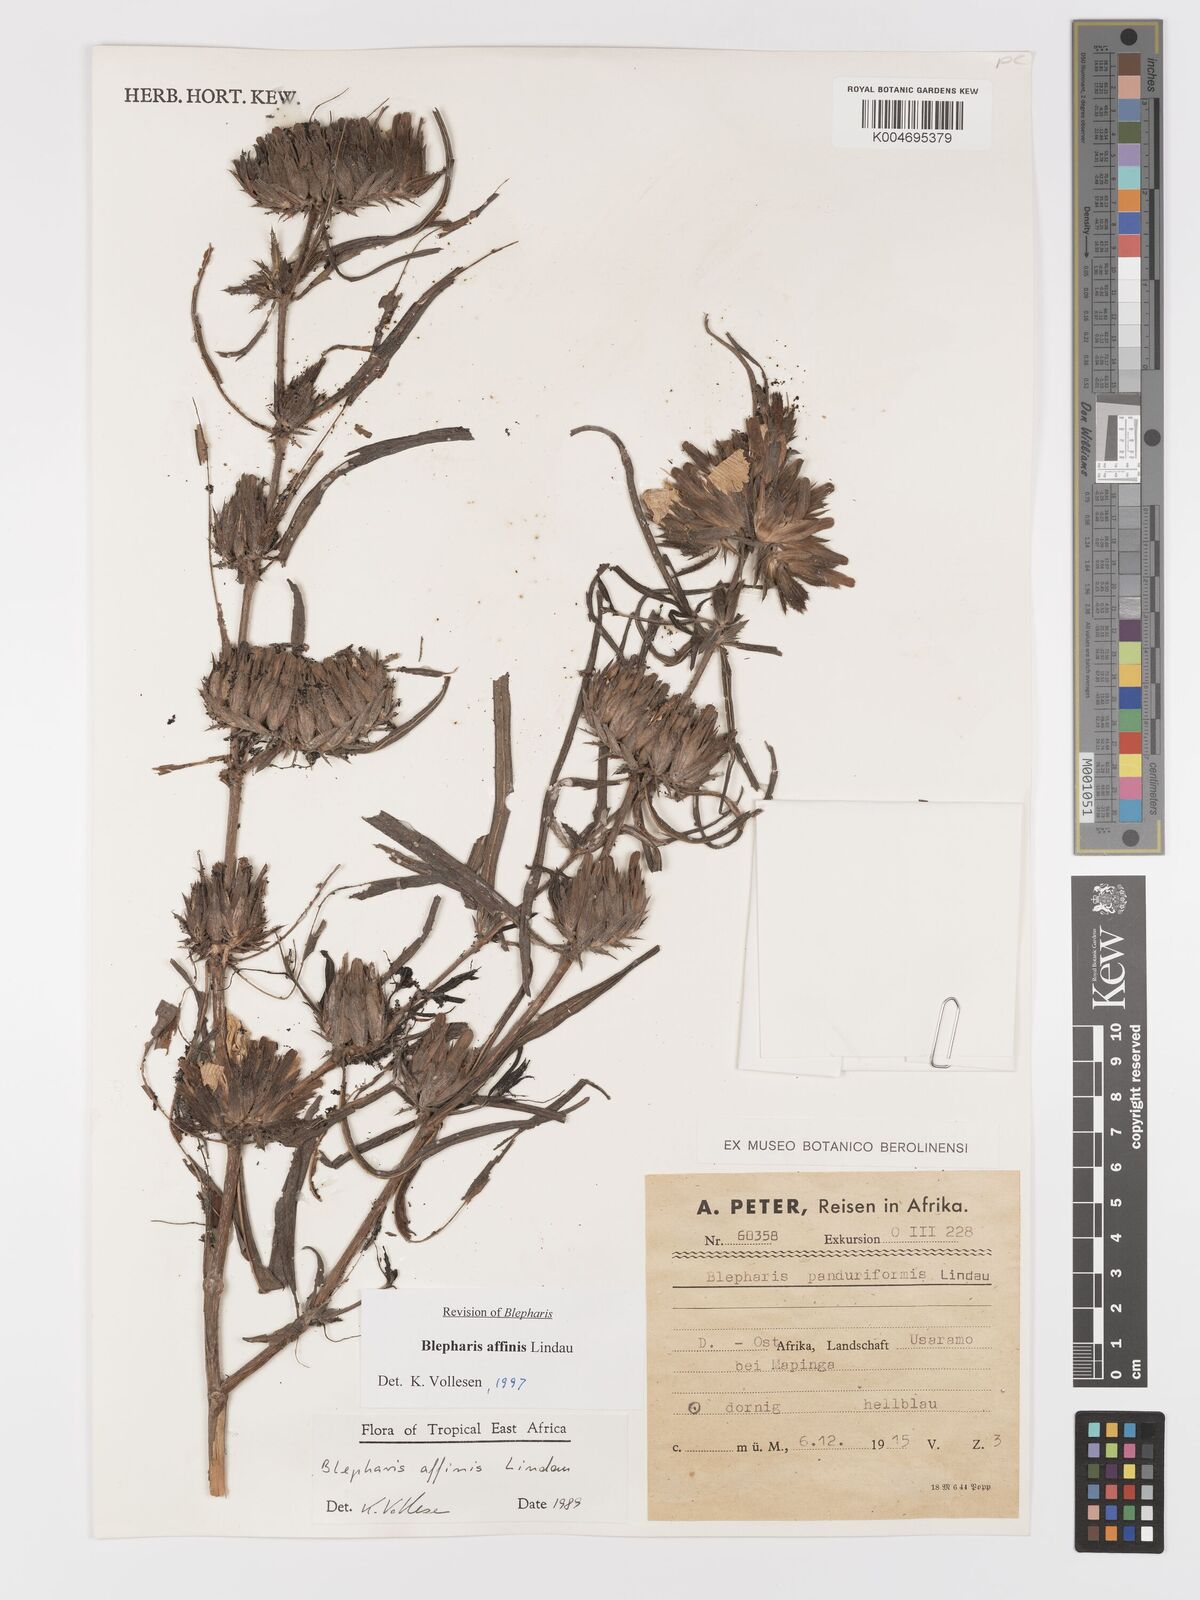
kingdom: Plantae
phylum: Tracheophyta
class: Magnoliopsida
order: Lamiales
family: Acanthaceae
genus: Blepharis
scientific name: Blepharis affinis
